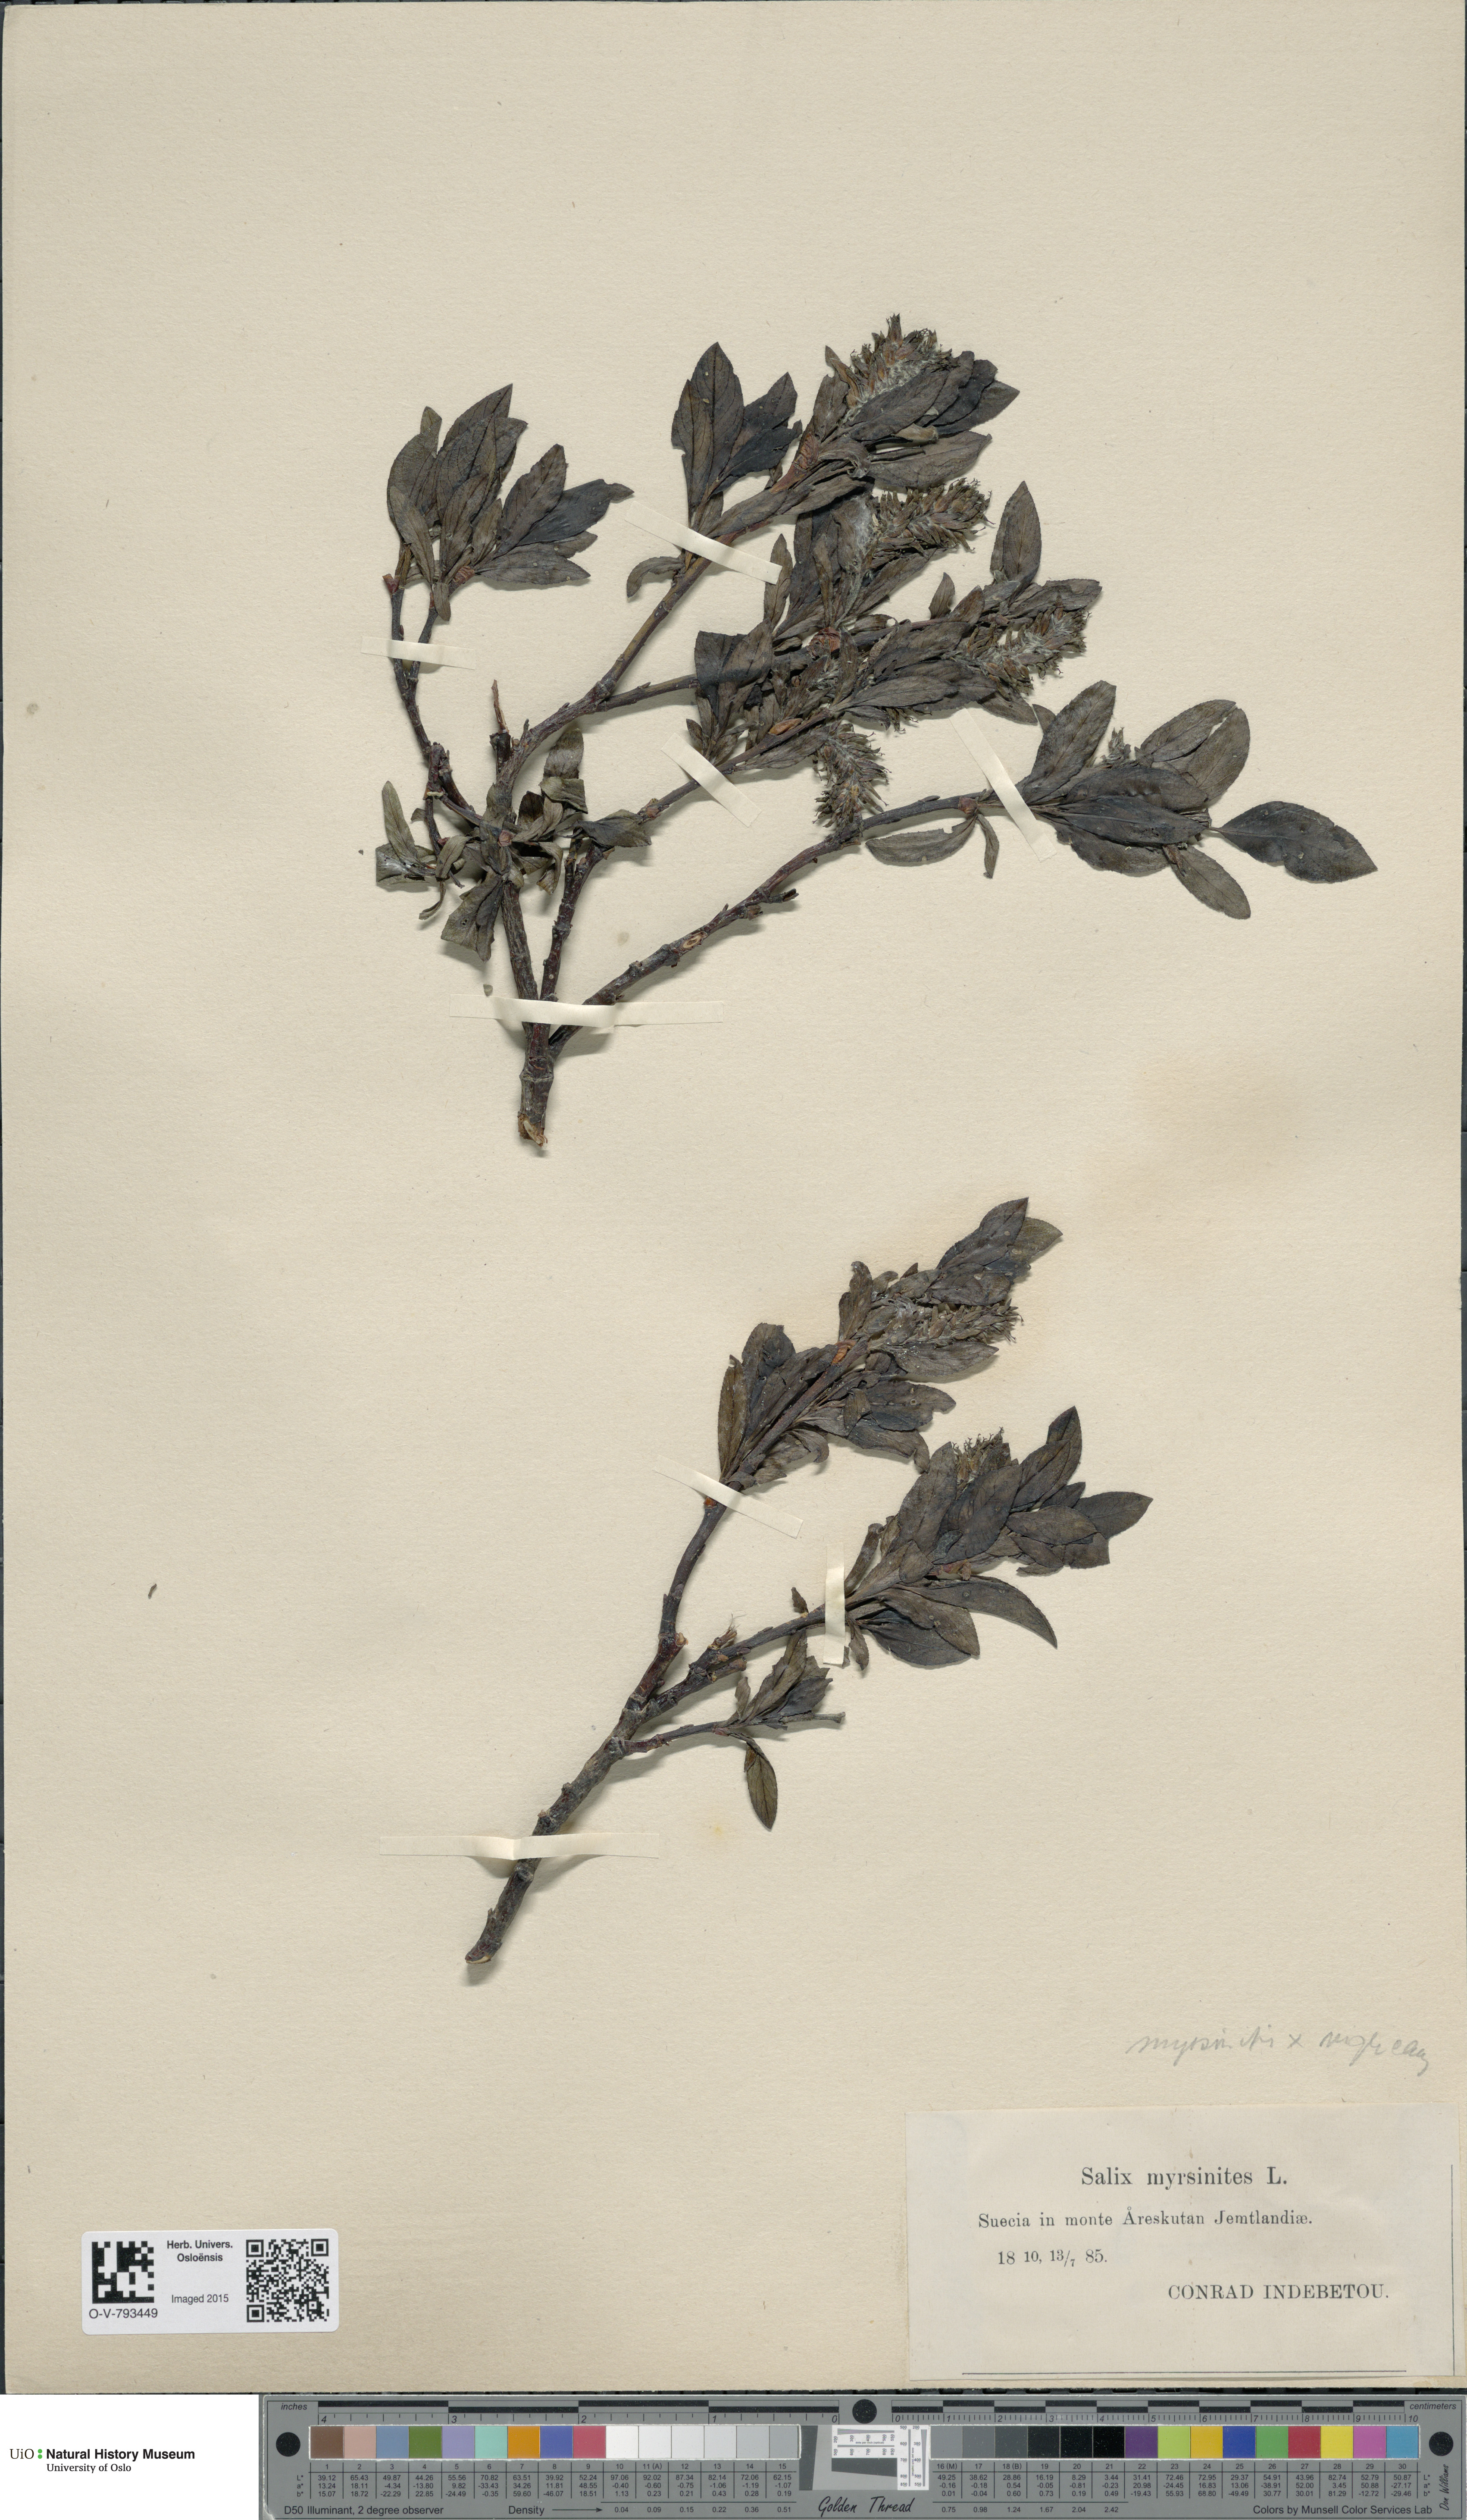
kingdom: Plantae
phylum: Tracheophyta
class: Magnoliopsida
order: Malpighiales
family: Salicaceae
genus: Salix
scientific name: Salix
